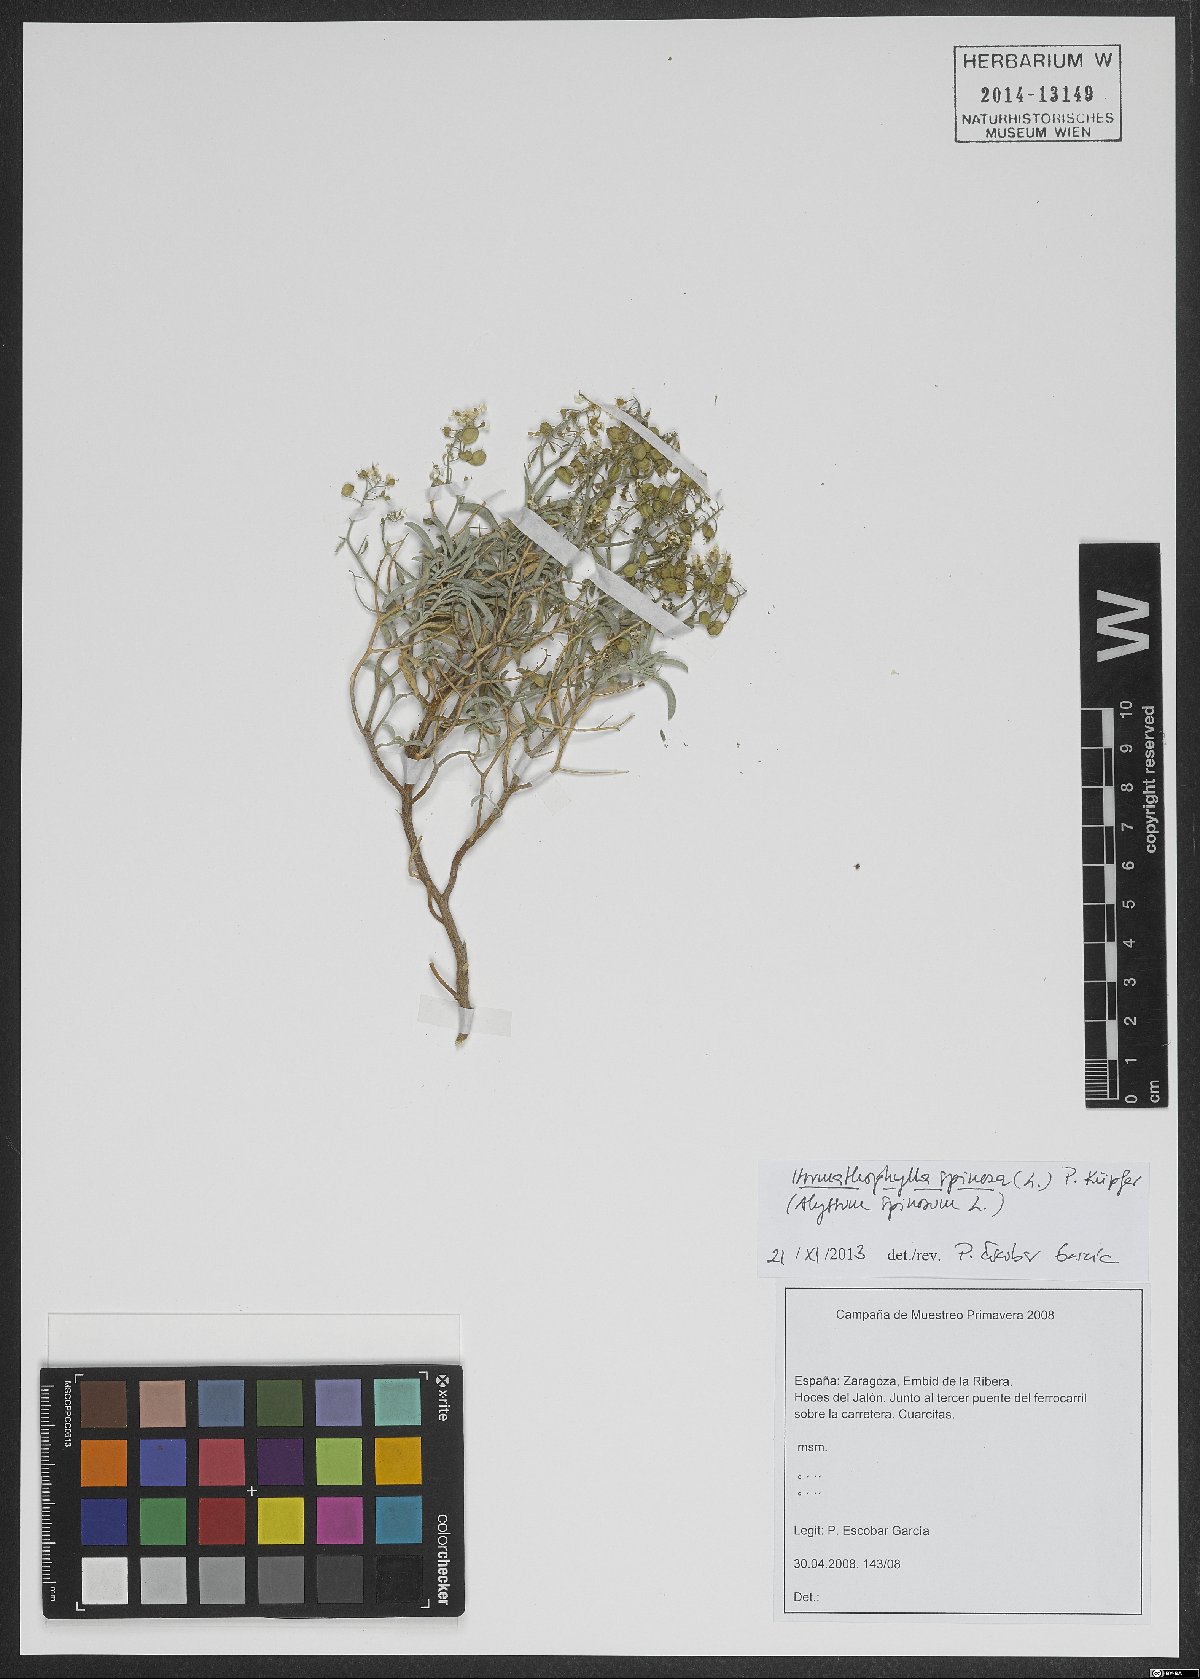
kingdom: Plantae
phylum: Tracheophyta
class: Magnoliopsida
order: Brassicales
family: Brassicaceae
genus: Hormathophylla
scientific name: Hormathophylla spinosa
